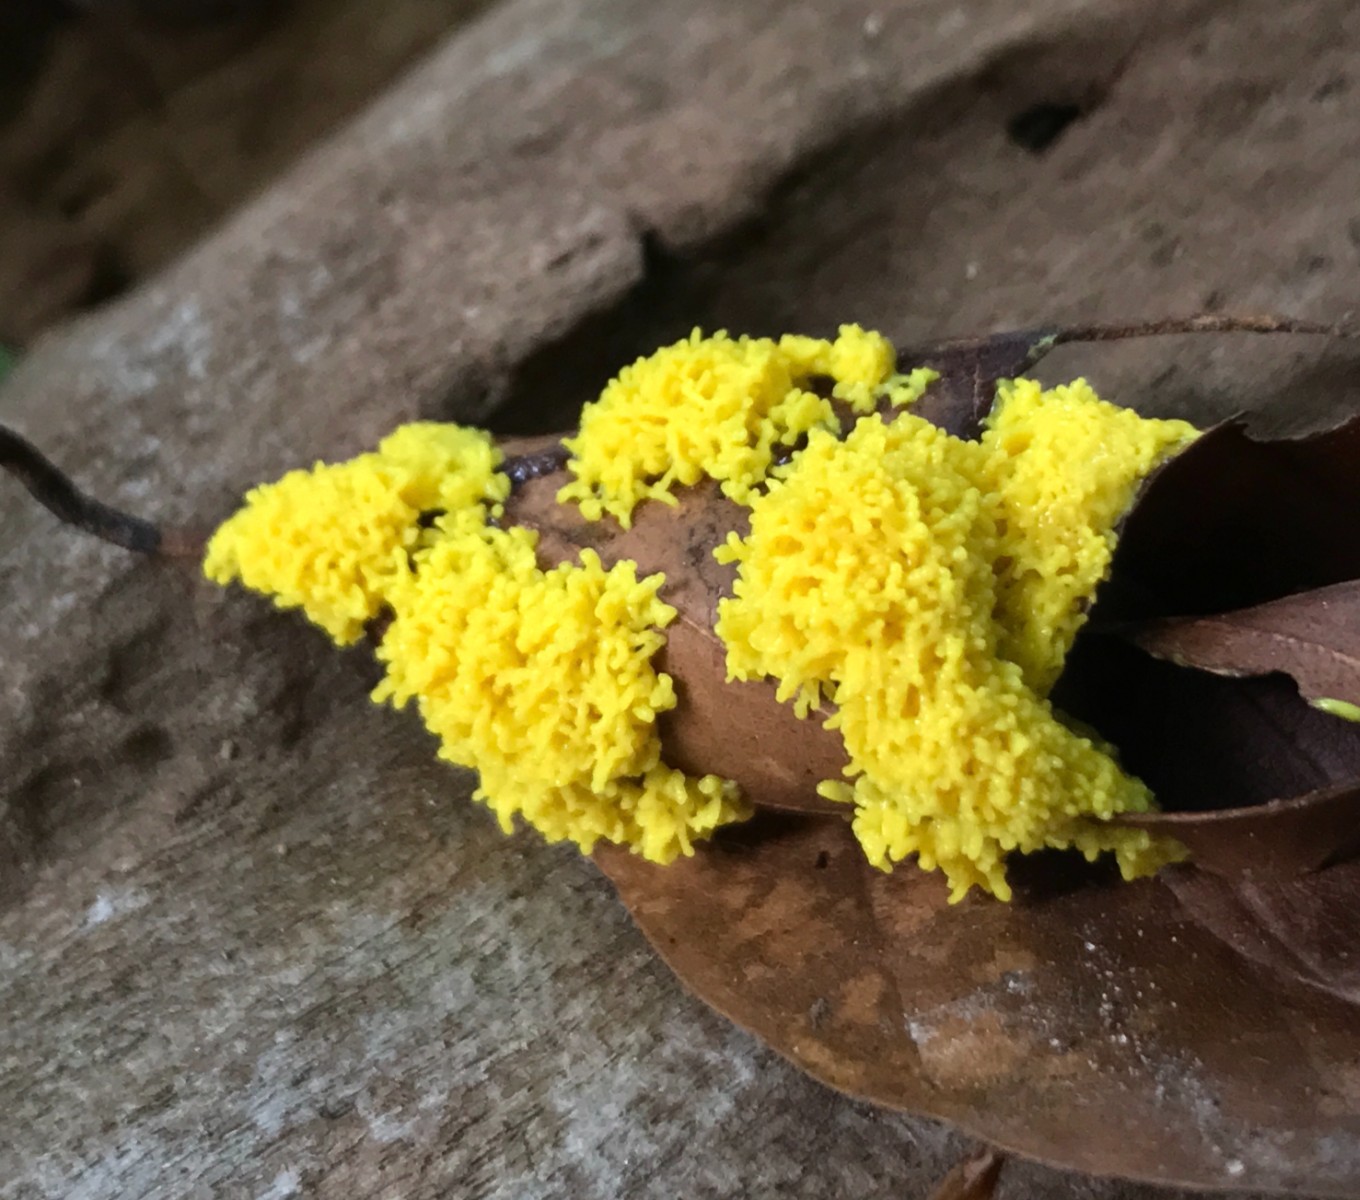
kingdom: Protozoa
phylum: Mycetozoa
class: Myxomycetes
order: Physarales
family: Physaraceae
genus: Fuligo
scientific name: Fuligo septica
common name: gul troldsmør
